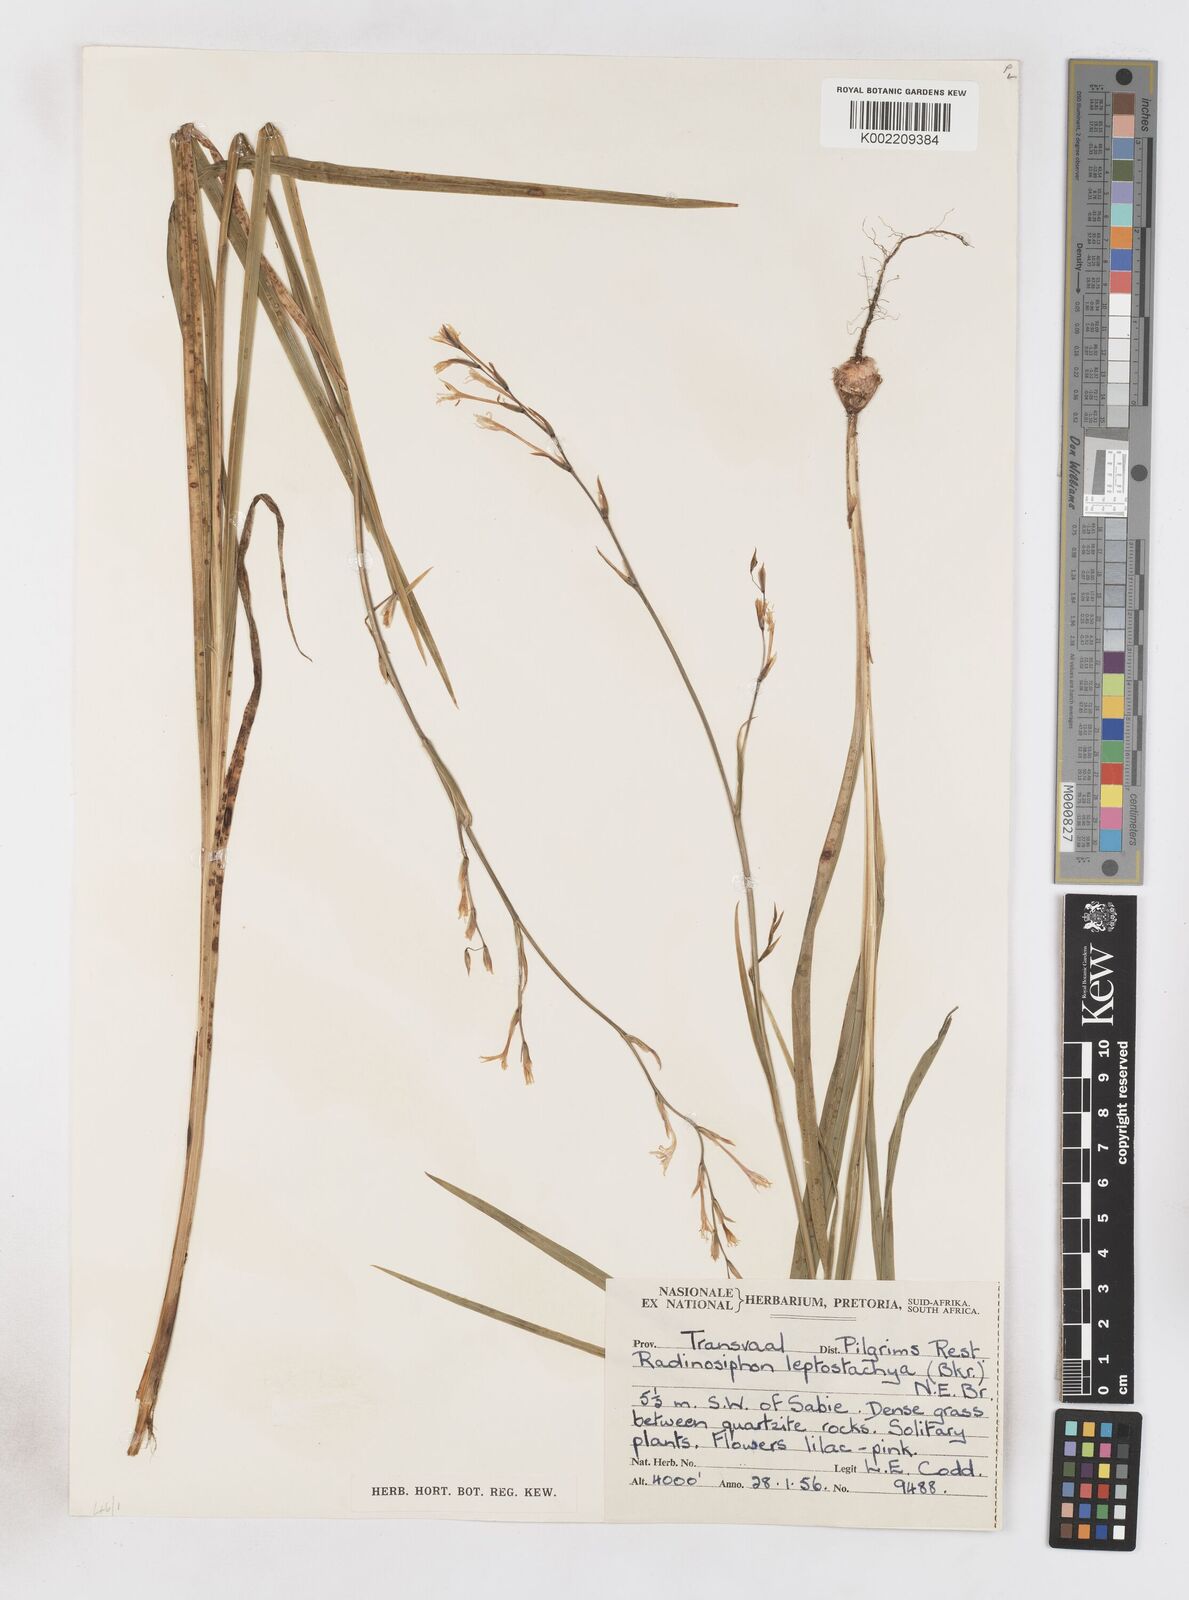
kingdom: Plantae
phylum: Tracheophyta
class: Liliopsida
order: Asparagales
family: Iridaceae
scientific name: Iridaceae
